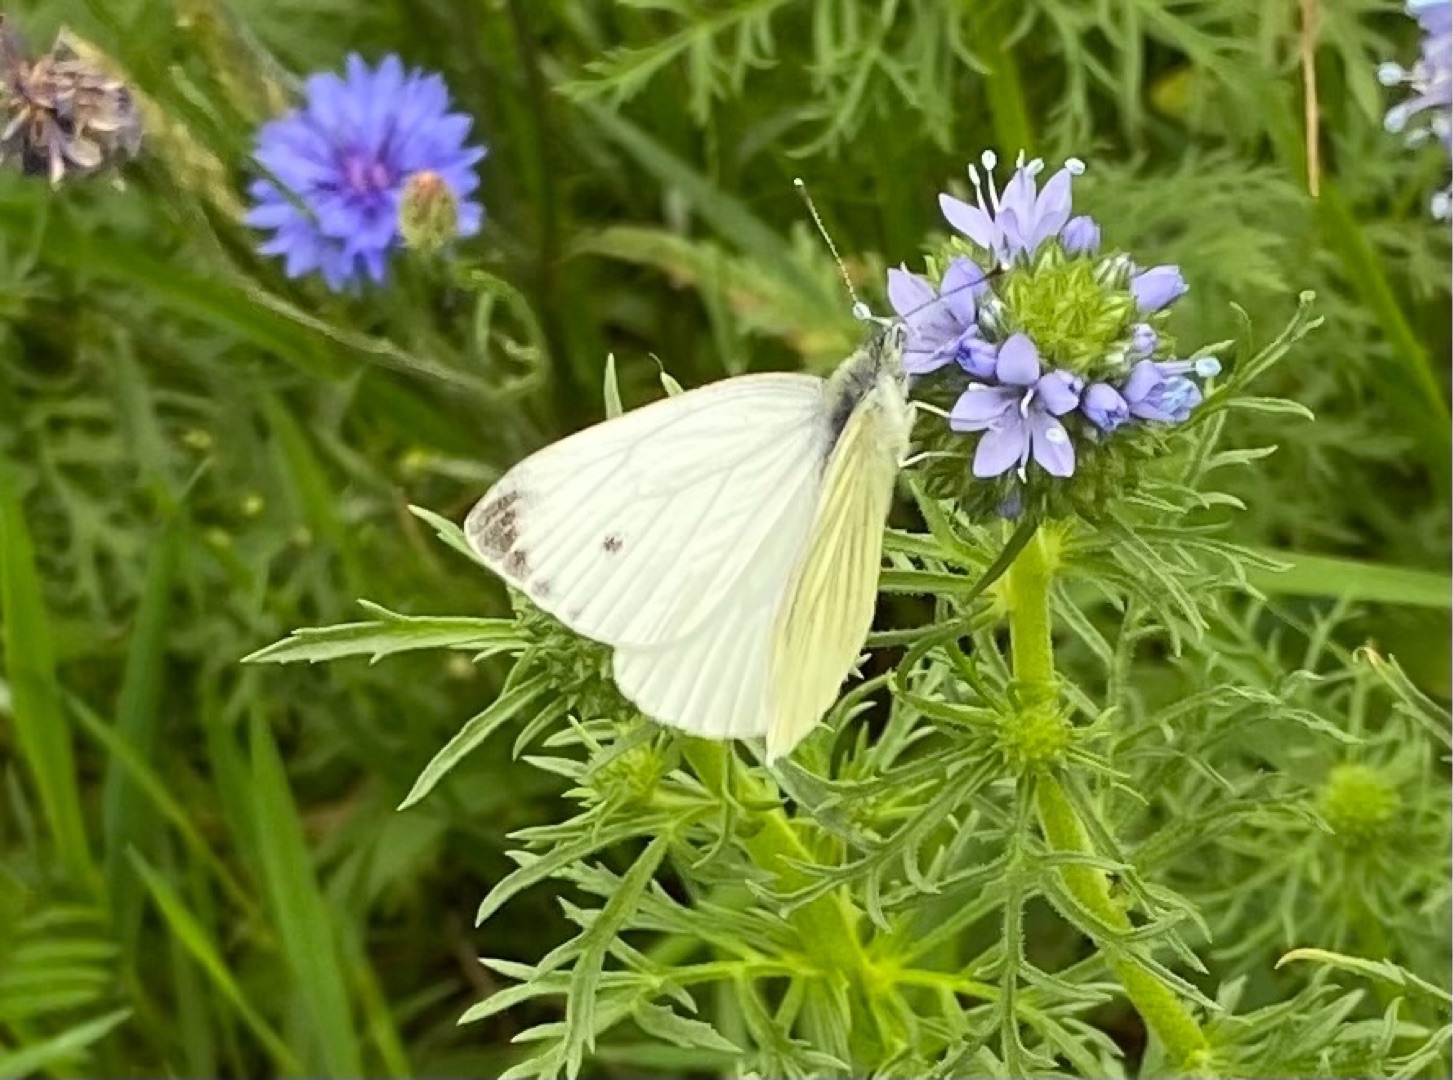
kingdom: Animalia
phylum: Arthropoda
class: Insecta
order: Lepidoptera
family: Pieridae
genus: Pieris
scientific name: Pieris napi
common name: Grønåret kålsommerfugl
